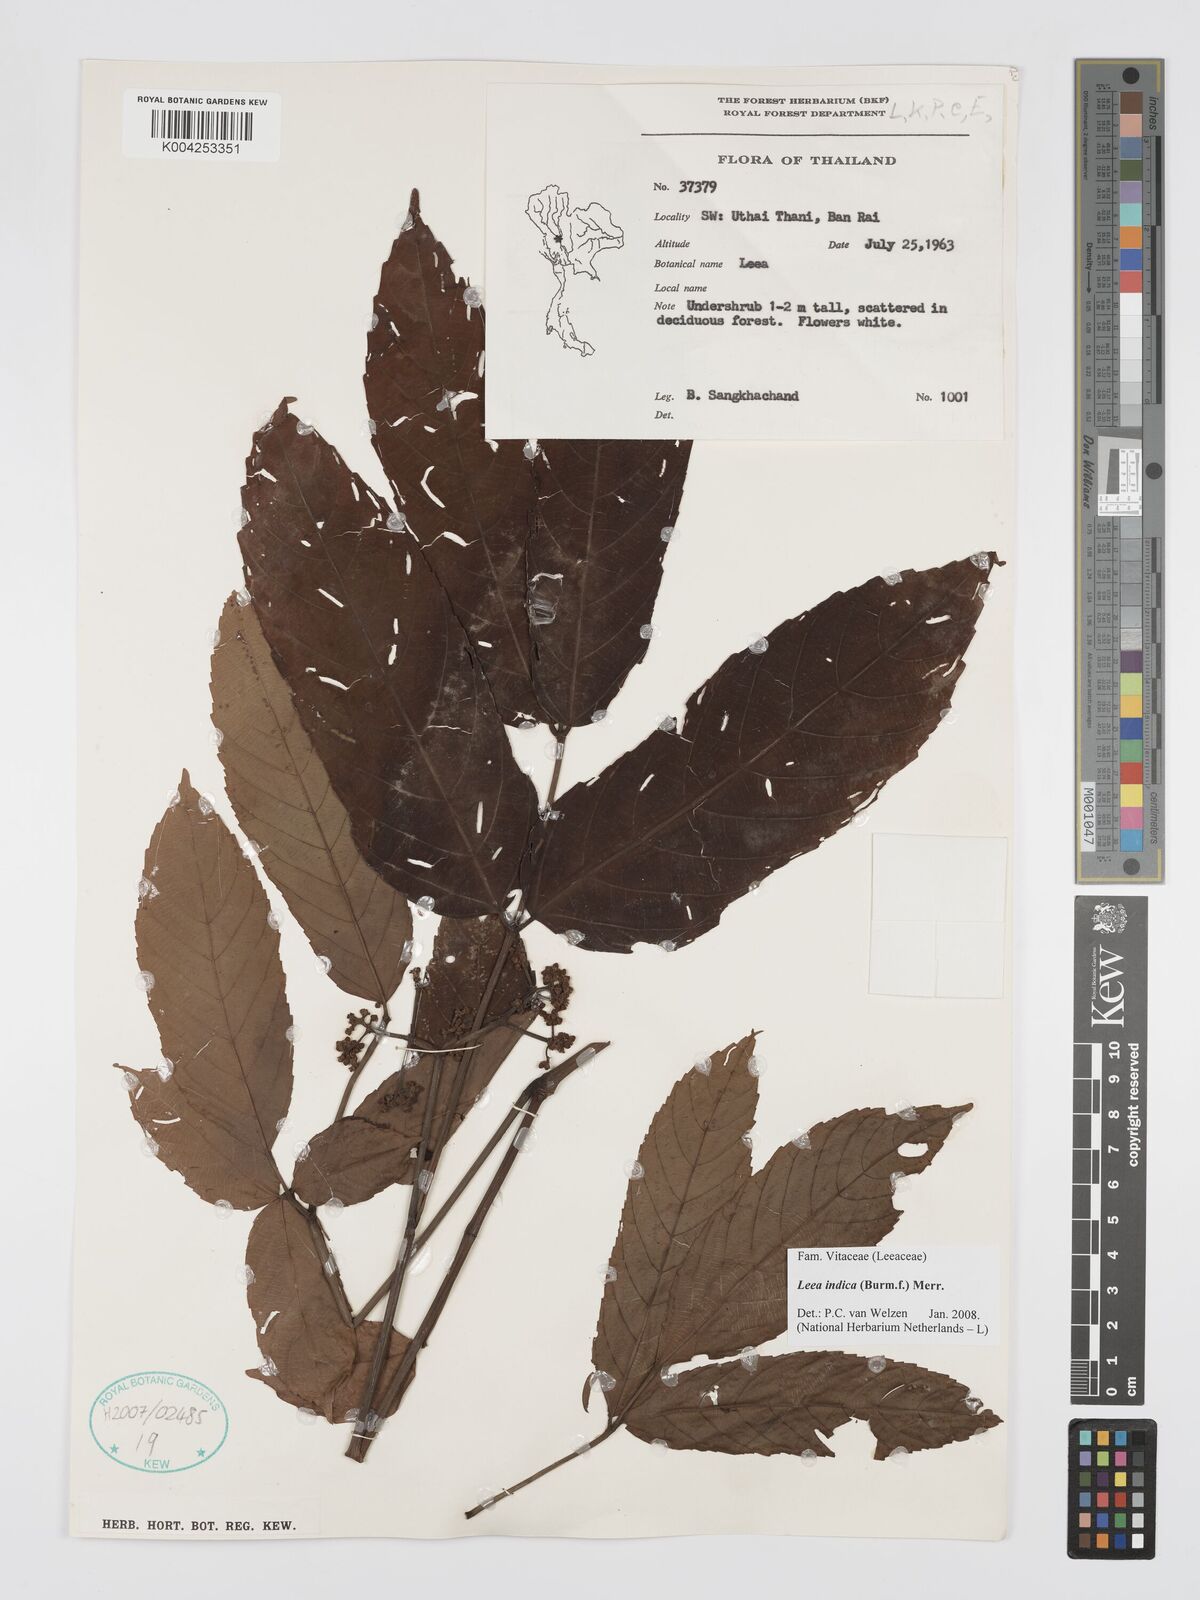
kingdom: Plantae
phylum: Tracheophyta
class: Magnoliopsida
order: Vitales
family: Vitaceae
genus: Leea
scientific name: Leea indica
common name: Bandicoot-berry
